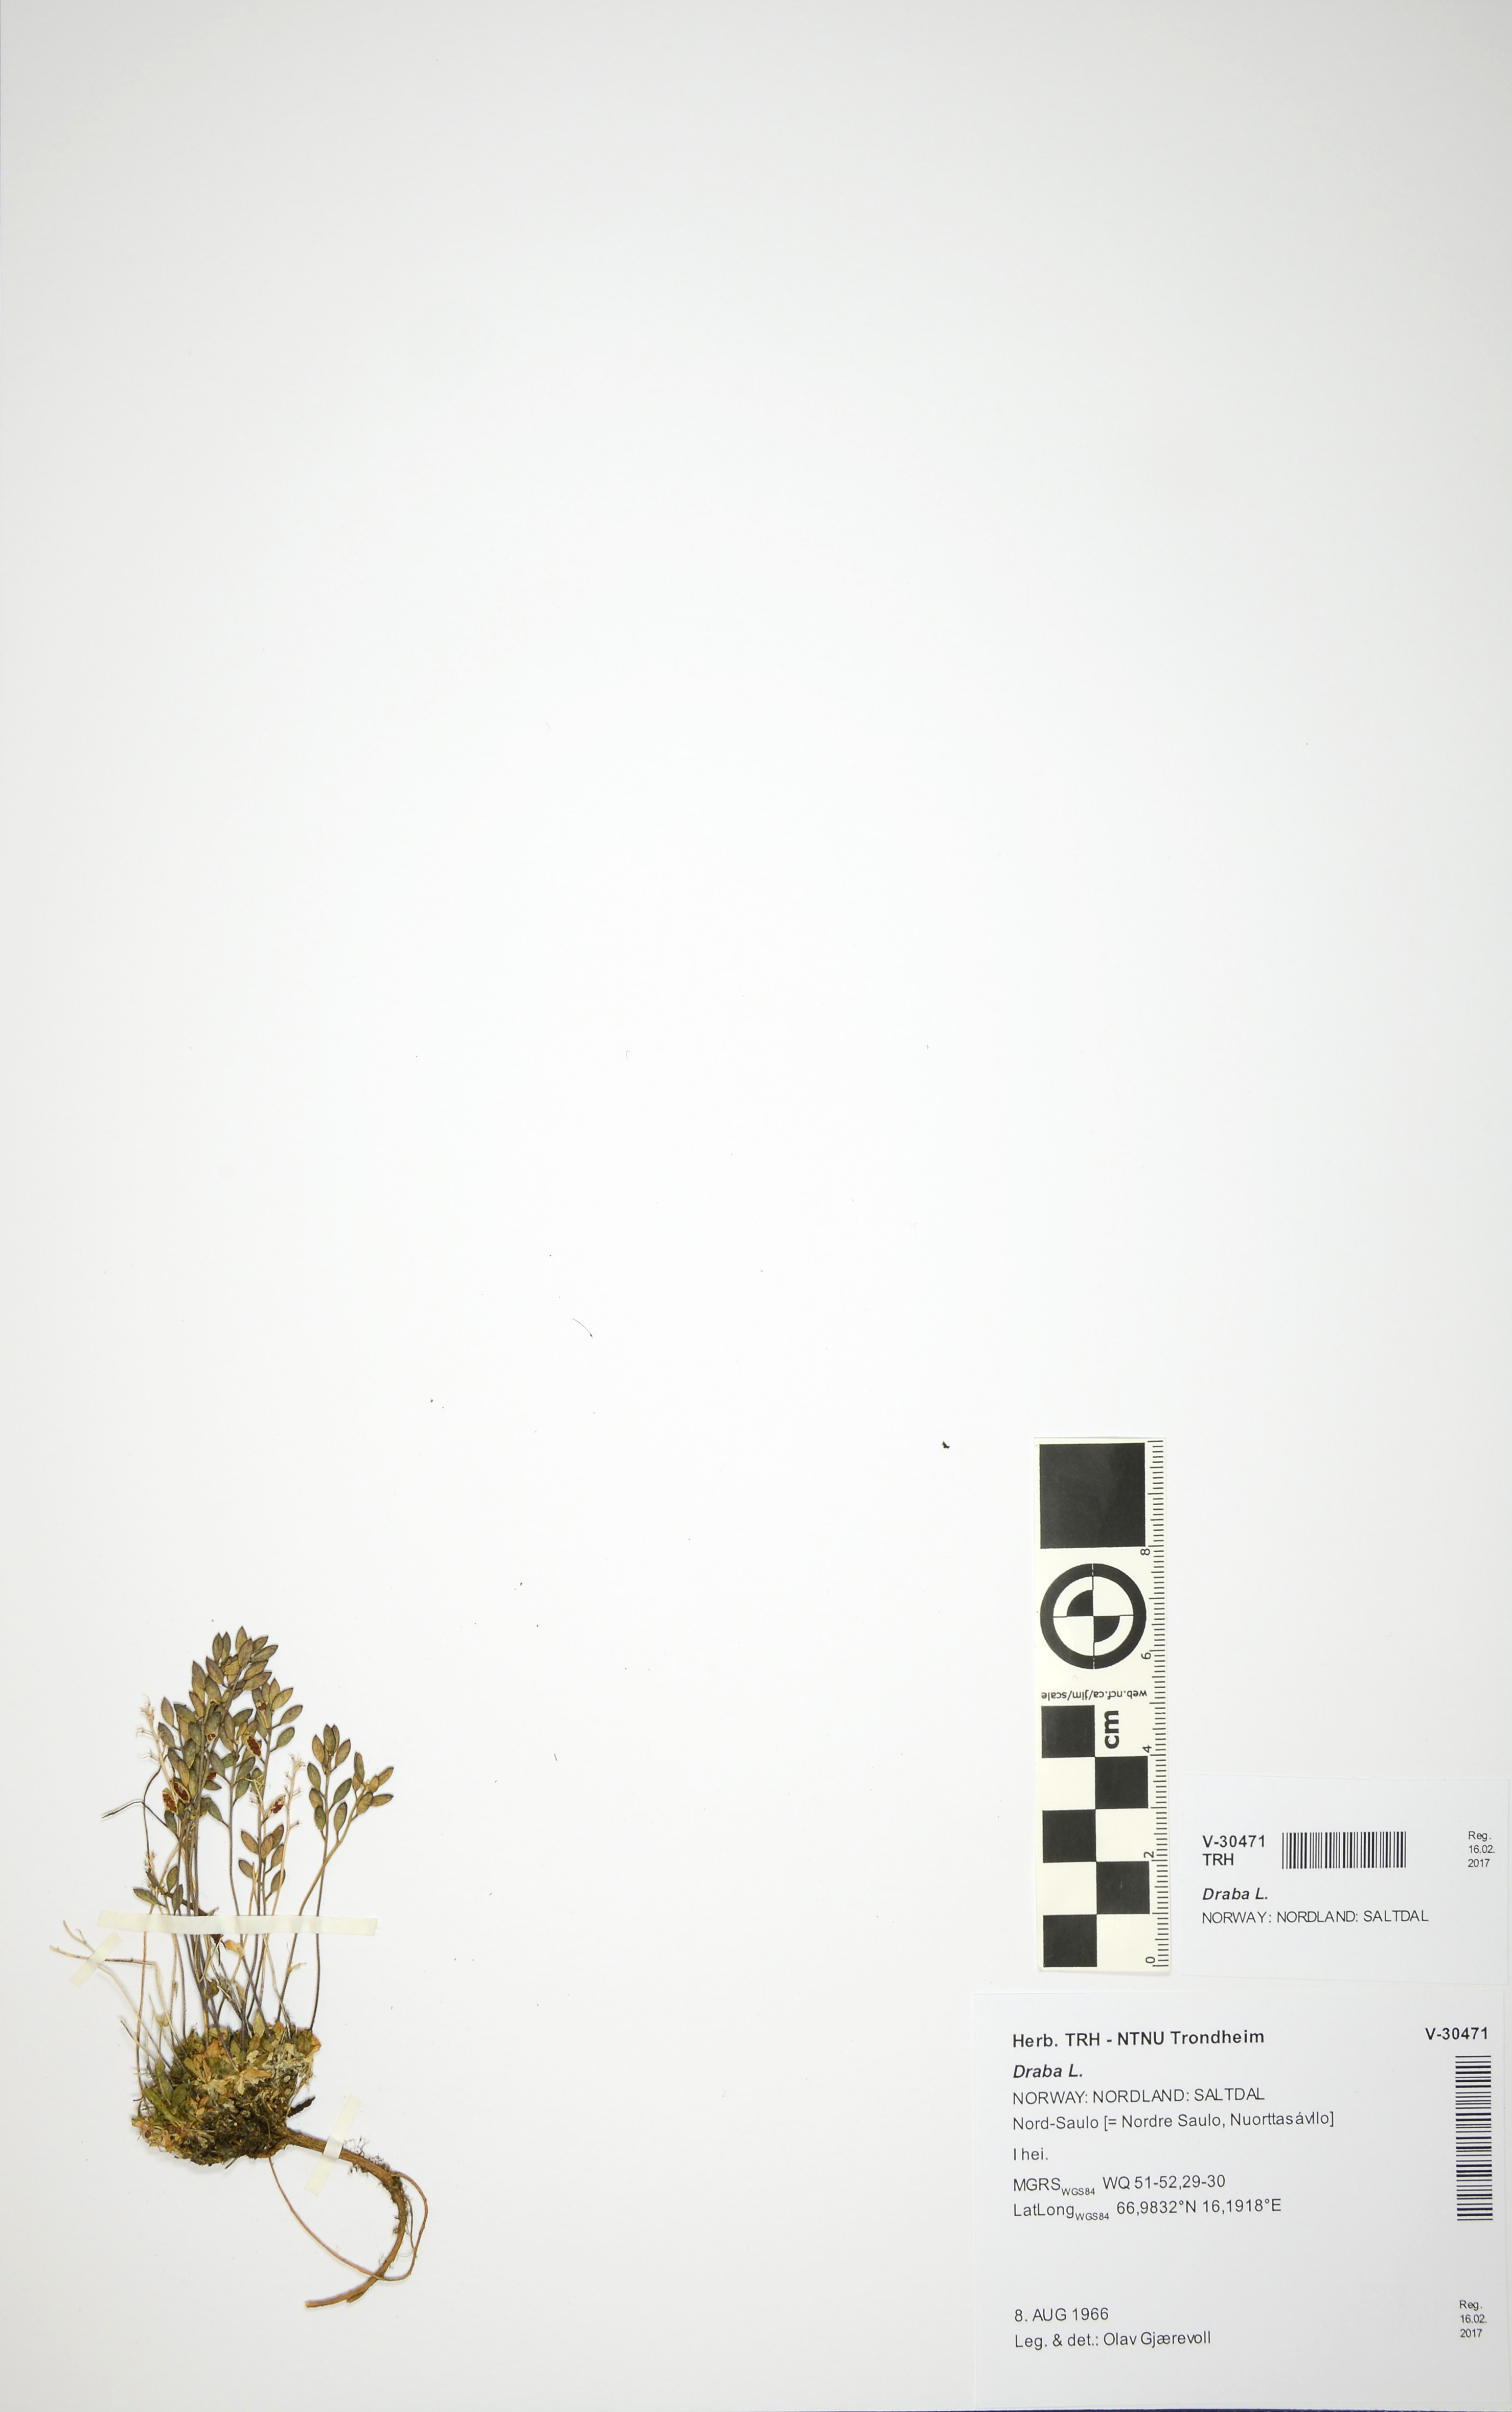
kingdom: Plantae
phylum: Tracheophyta
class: Magnoliopsida
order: Brassicales
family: Brassicaceae
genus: Draba
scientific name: Draba
